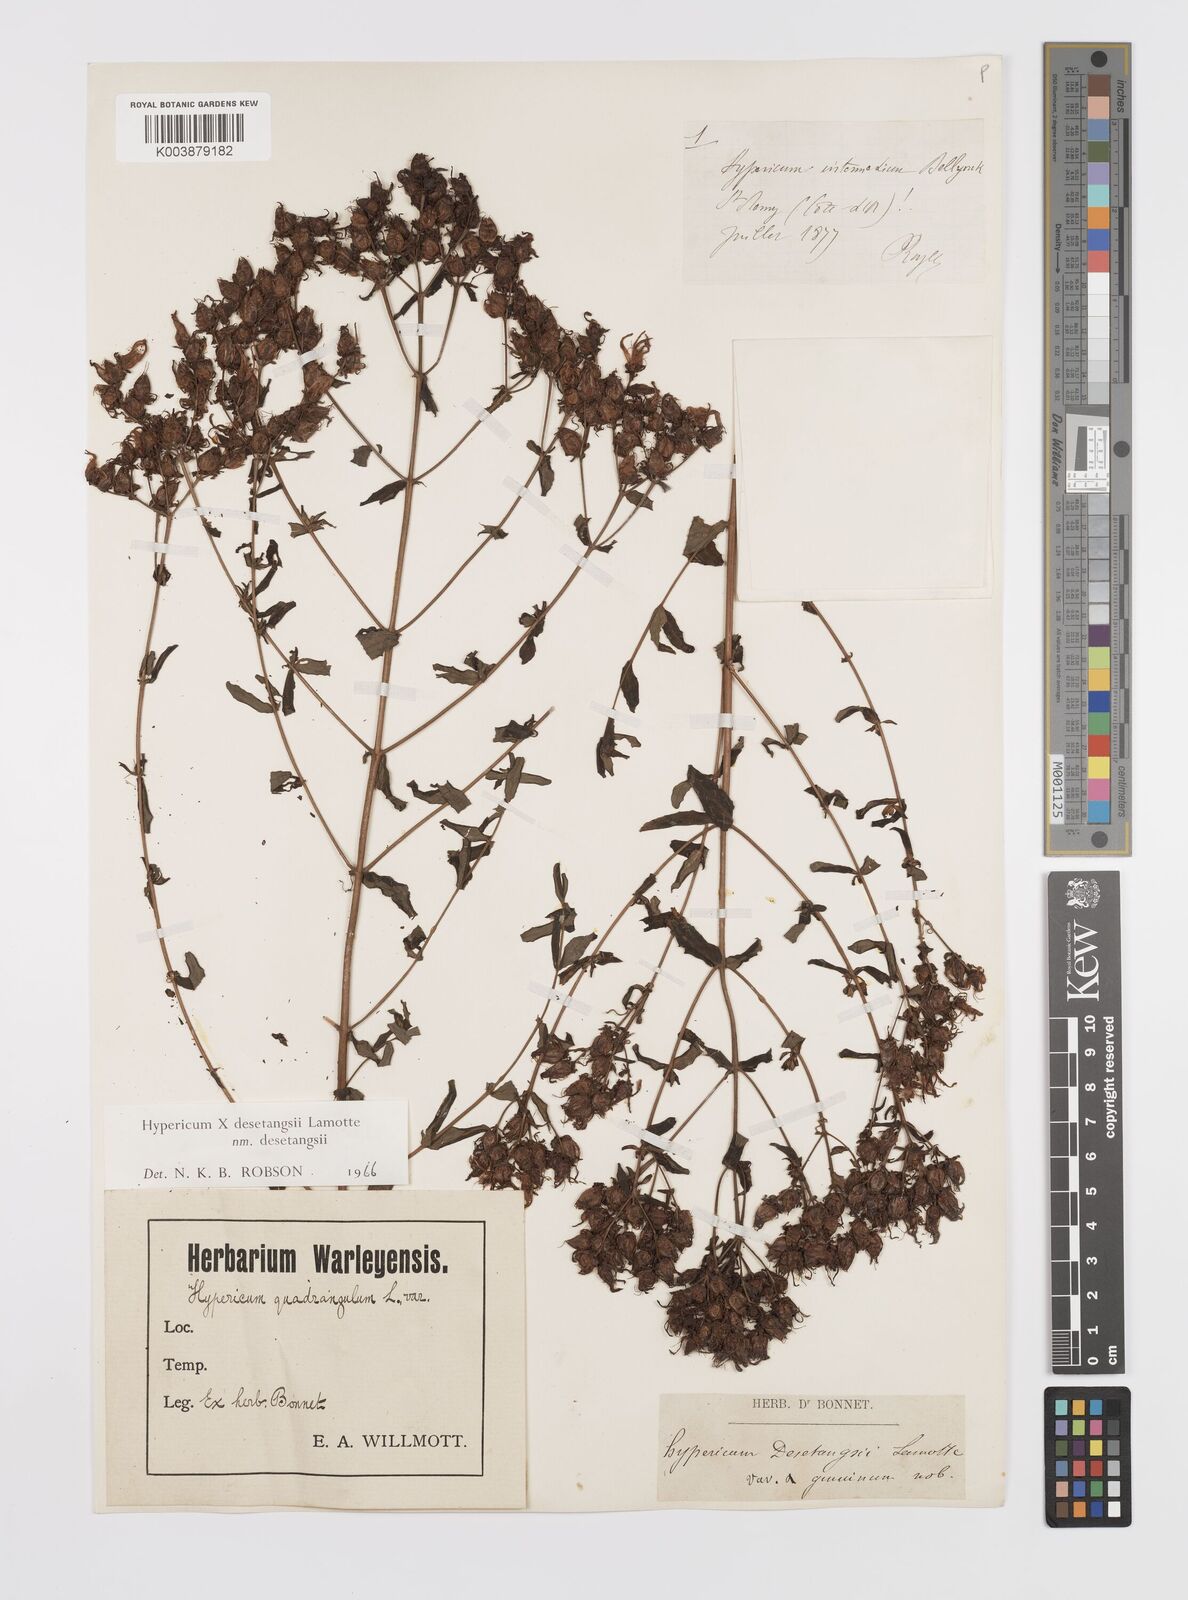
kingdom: Plantae
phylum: Tracheophyta
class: Magnoliopsida
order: Malpighiales
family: Hypericaceae
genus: Hypericum
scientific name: Hypericum desetangsii
